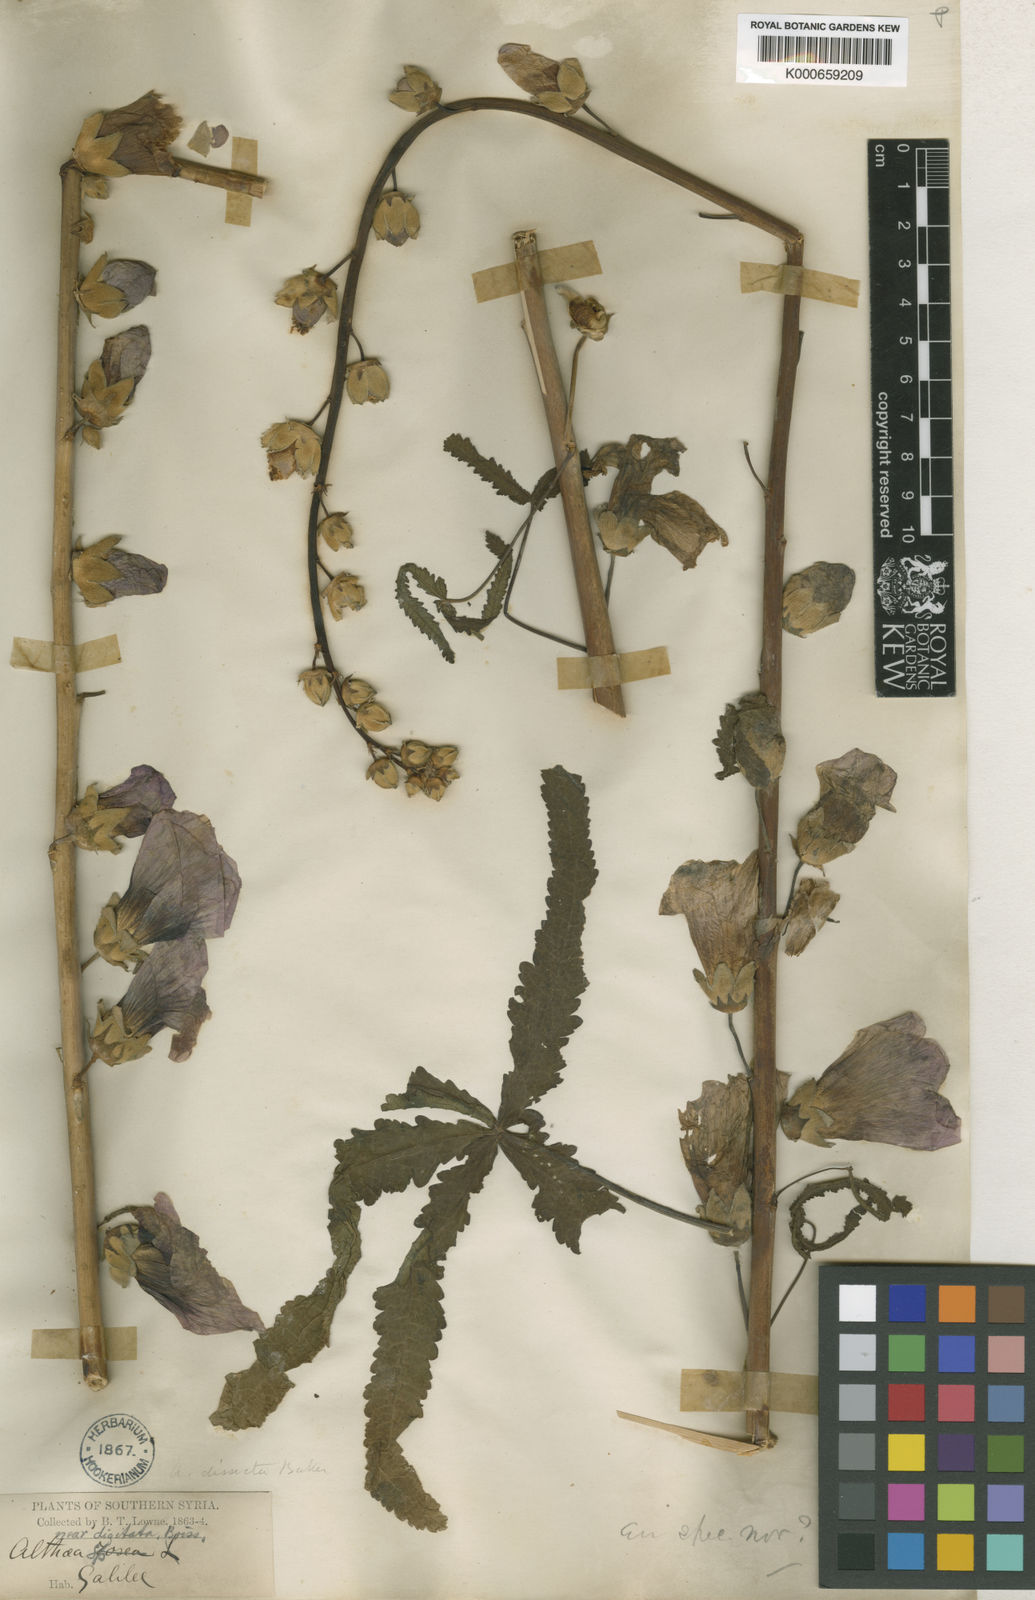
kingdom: Plantae
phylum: Tracheophyta
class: Magnoliopsida
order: Malvales
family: Malvaceae
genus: Alcea
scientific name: Alcea dissecta
